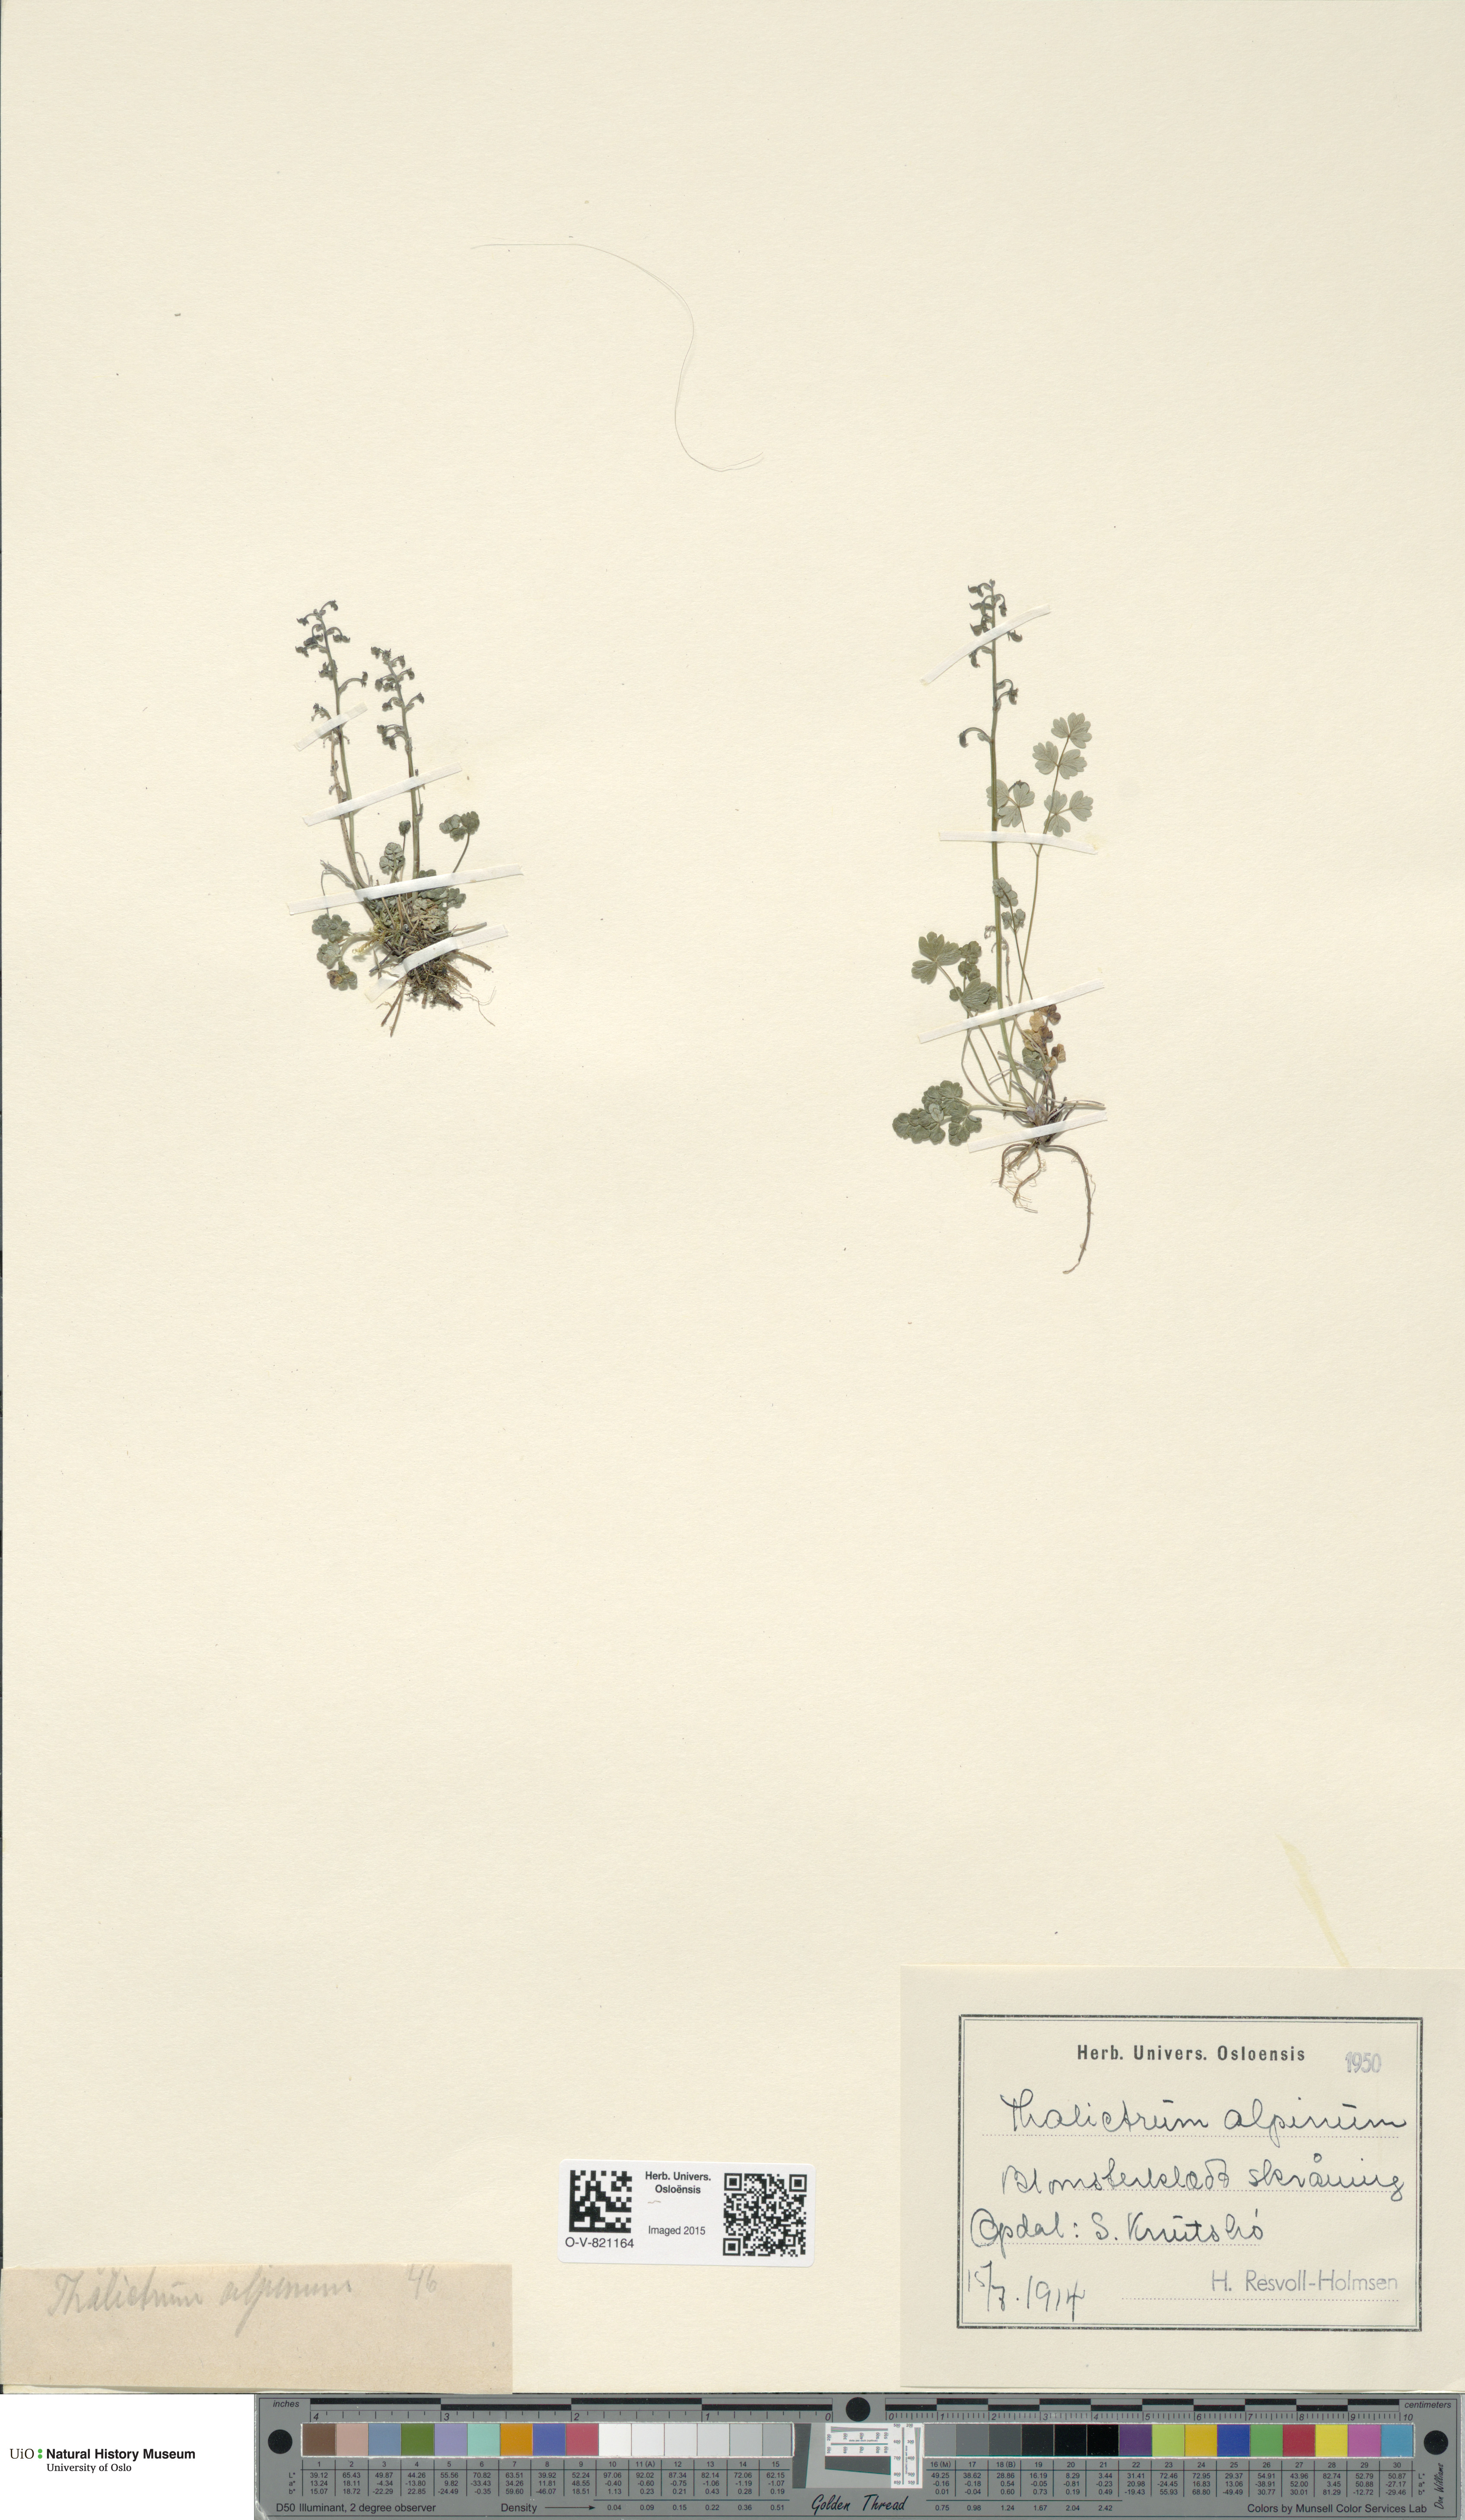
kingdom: Plantae
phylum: Tracheophyta
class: Magnoliopsida
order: Ranunculales
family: Ranunculaceae
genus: Thalictrum
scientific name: Thalictrum alpinum
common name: Alpine meadow-rue
